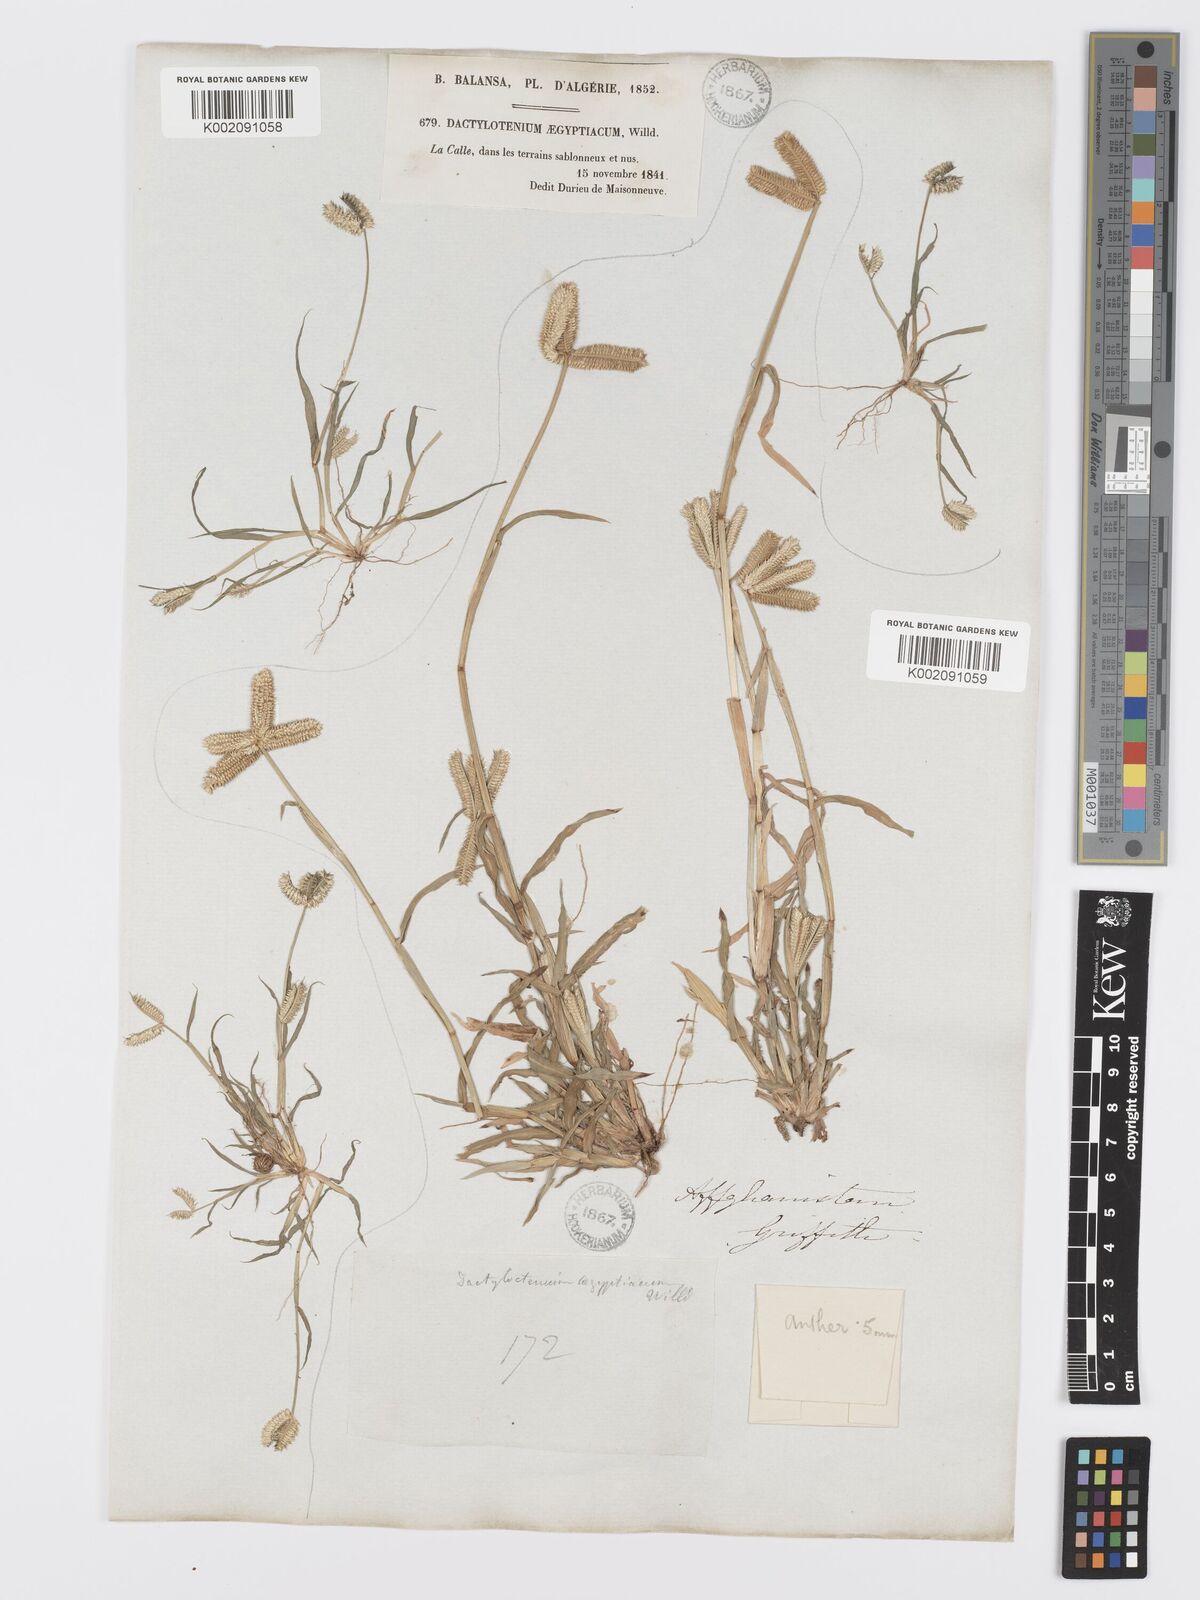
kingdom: Plantae
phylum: Tracheophyta
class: Liliopsida
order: Poales
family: Poaceae
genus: Dactyloctenium
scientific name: Dactyloctenium aegyptium
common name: Egyptian grass
